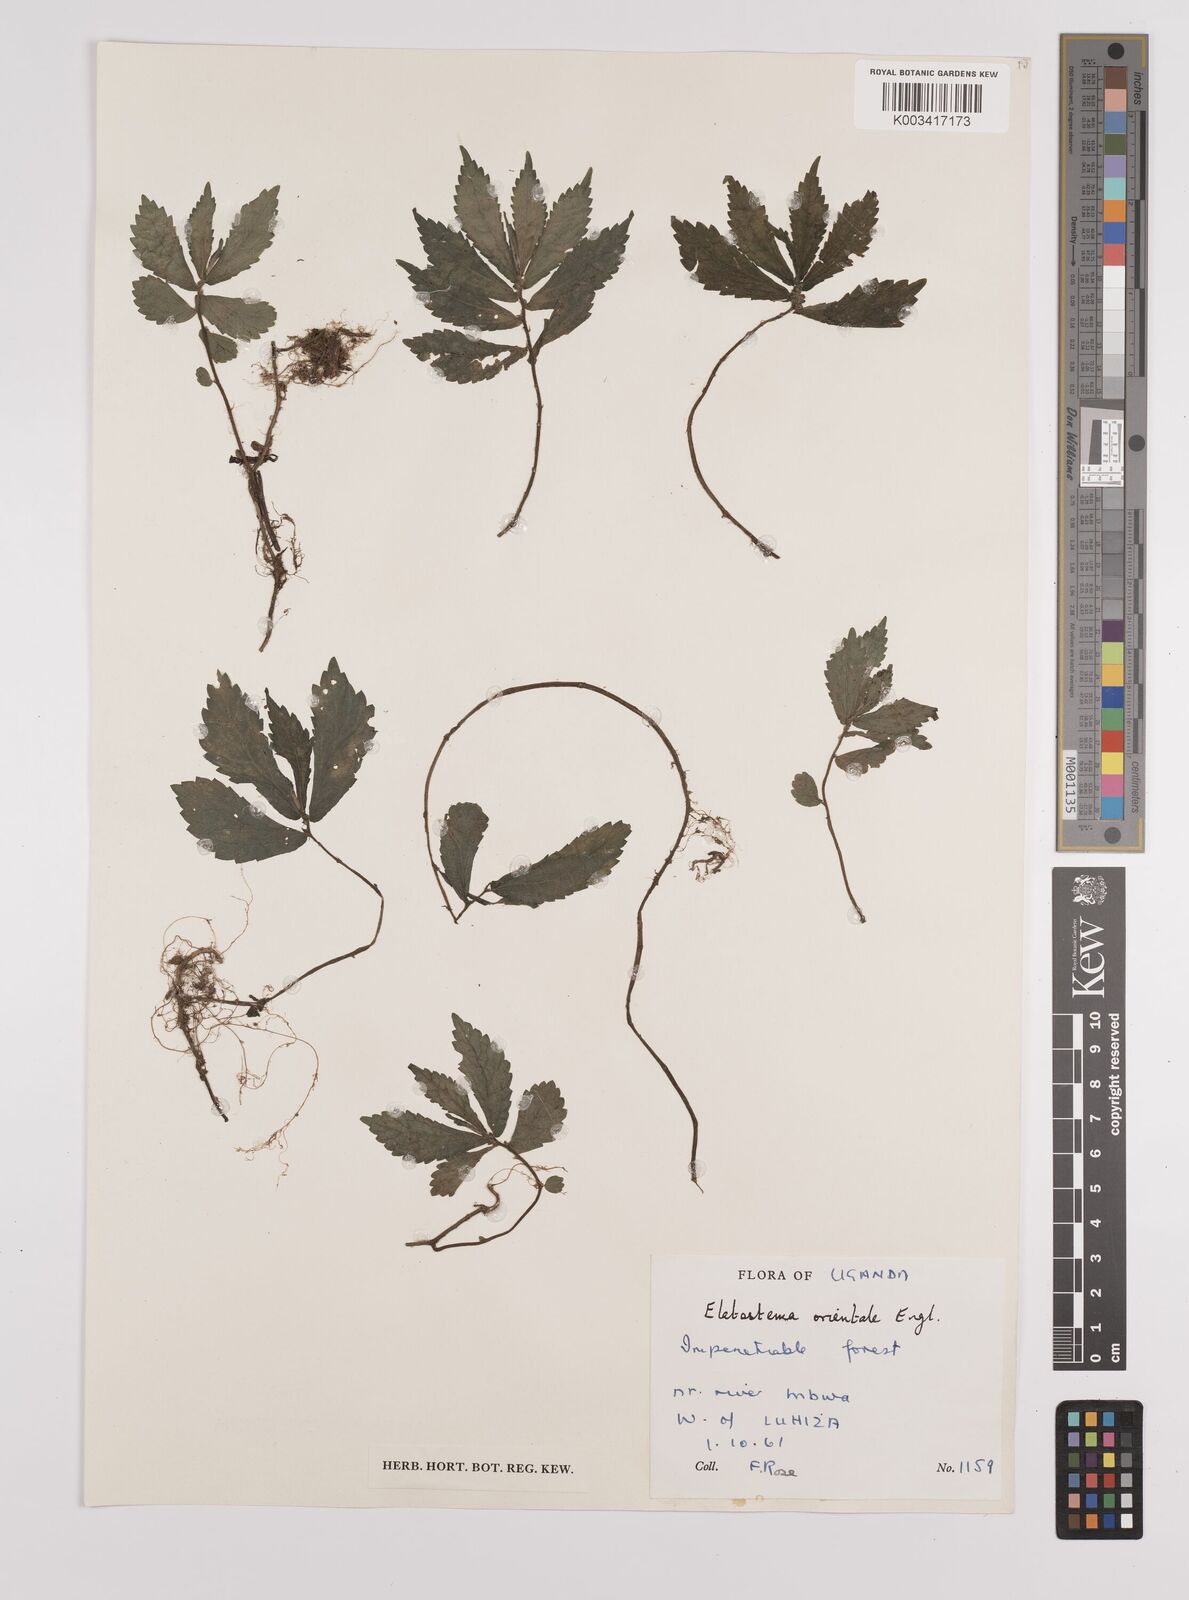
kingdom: Plantae
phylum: Tracheophyta
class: Magnoliopsida
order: Rosales
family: Urticaceae
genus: Elatostema
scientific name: Elatostema monticola
